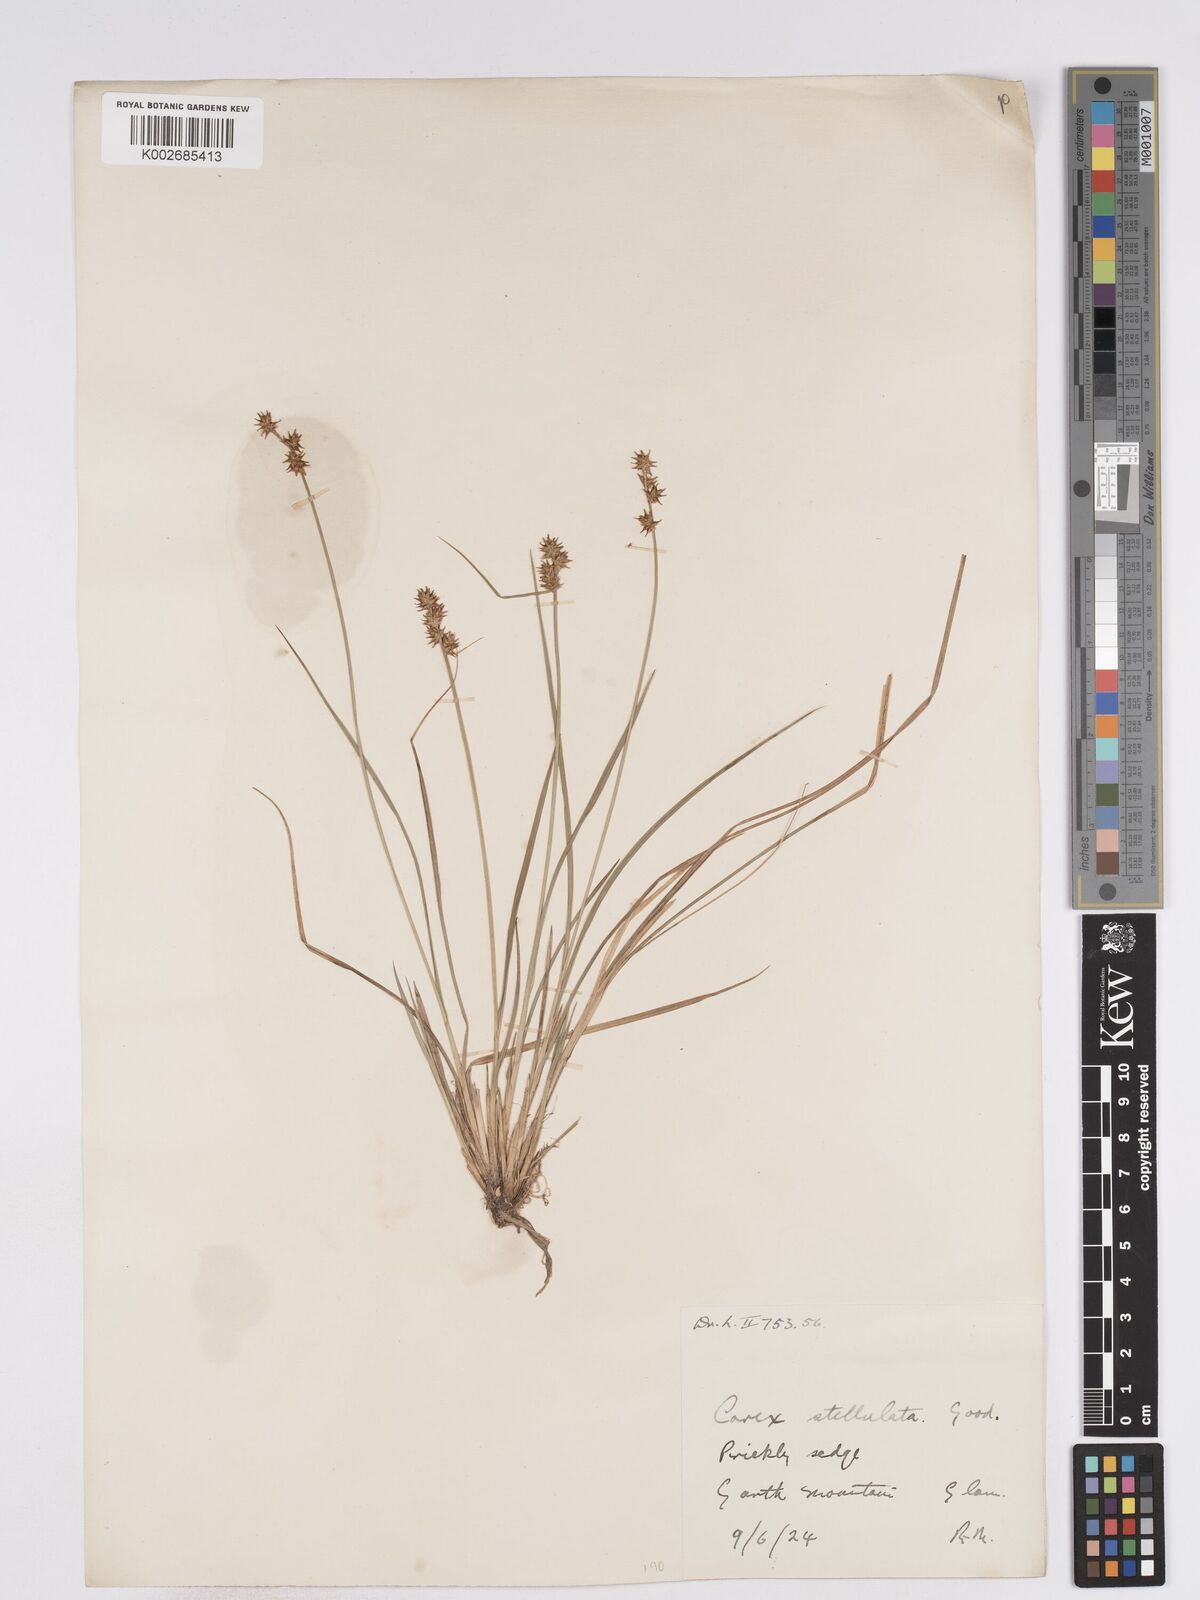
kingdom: Plantae
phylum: Tracheophyta
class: Liliopsida
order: Poales
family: Cyperaceae
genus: Carex
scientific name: Carex echinata
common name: Star sedge
